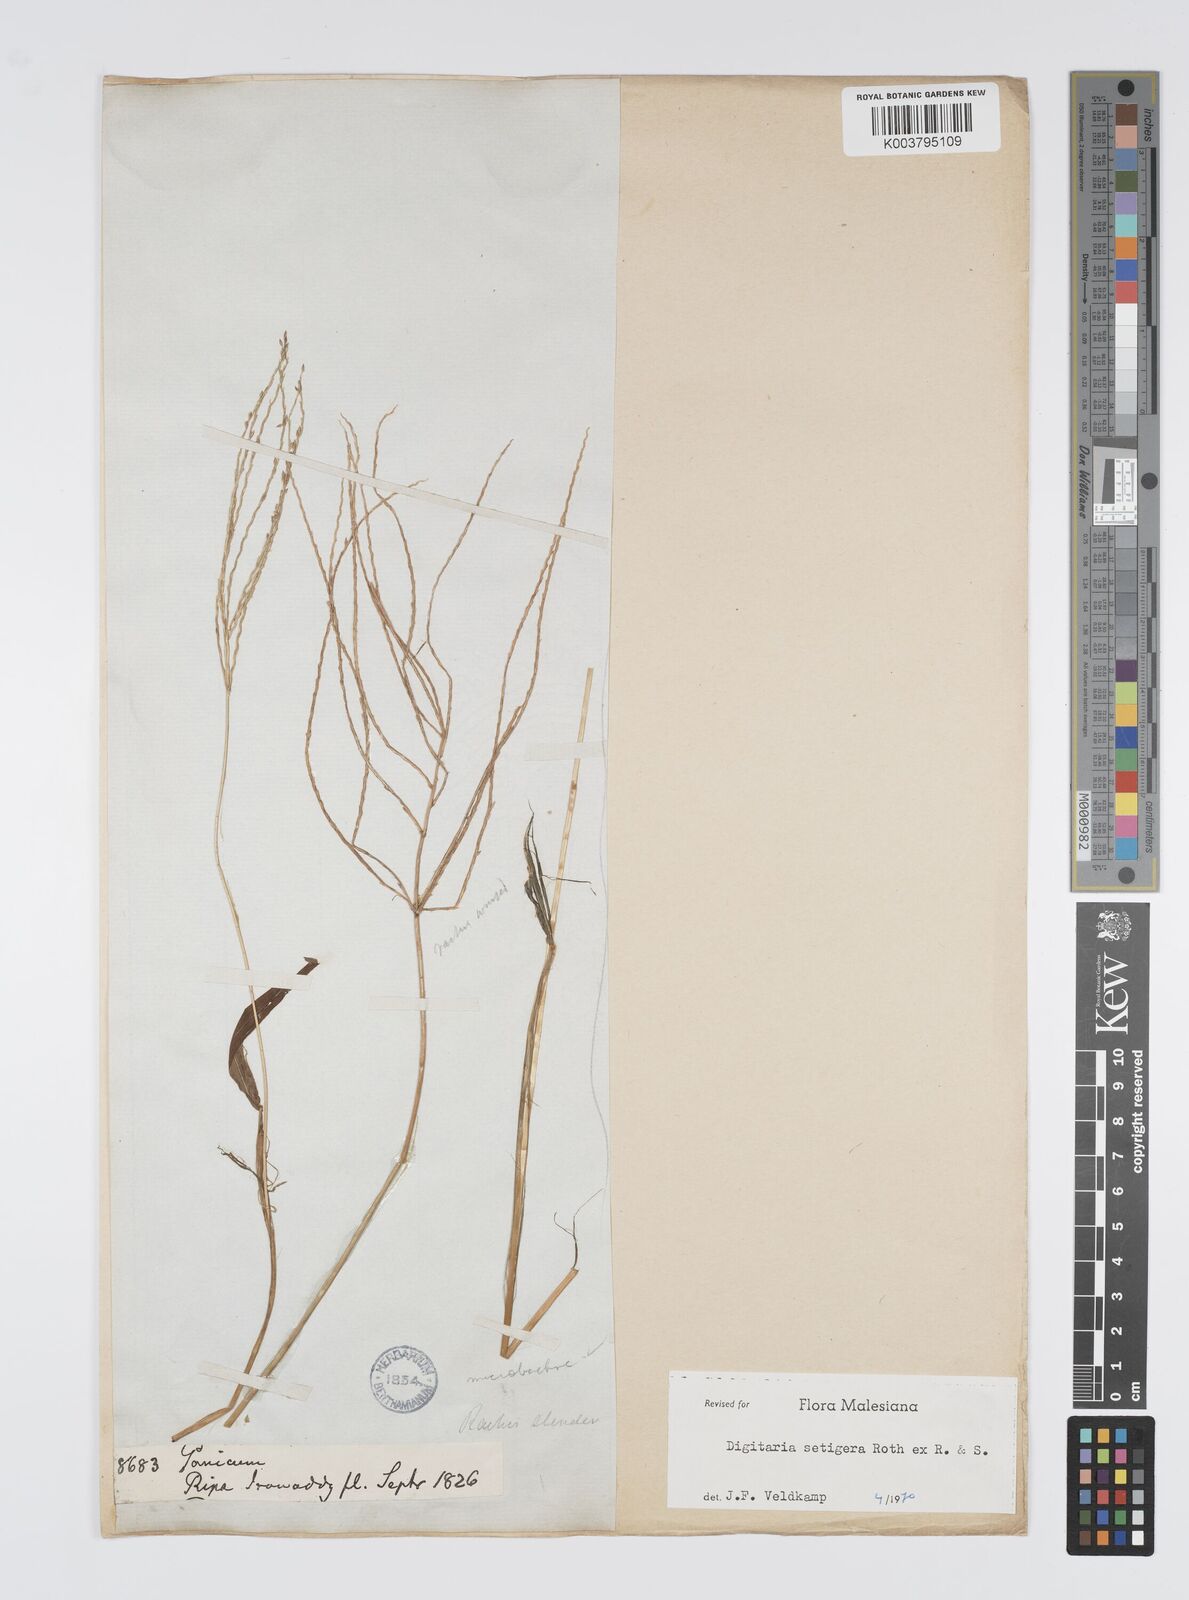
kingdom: Plantae
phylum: Tracheophyta
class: Liliopsida
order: Poales
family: Poaceae
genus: Digitaria
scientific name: Digitaria setigera
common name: East indian crabgrass
